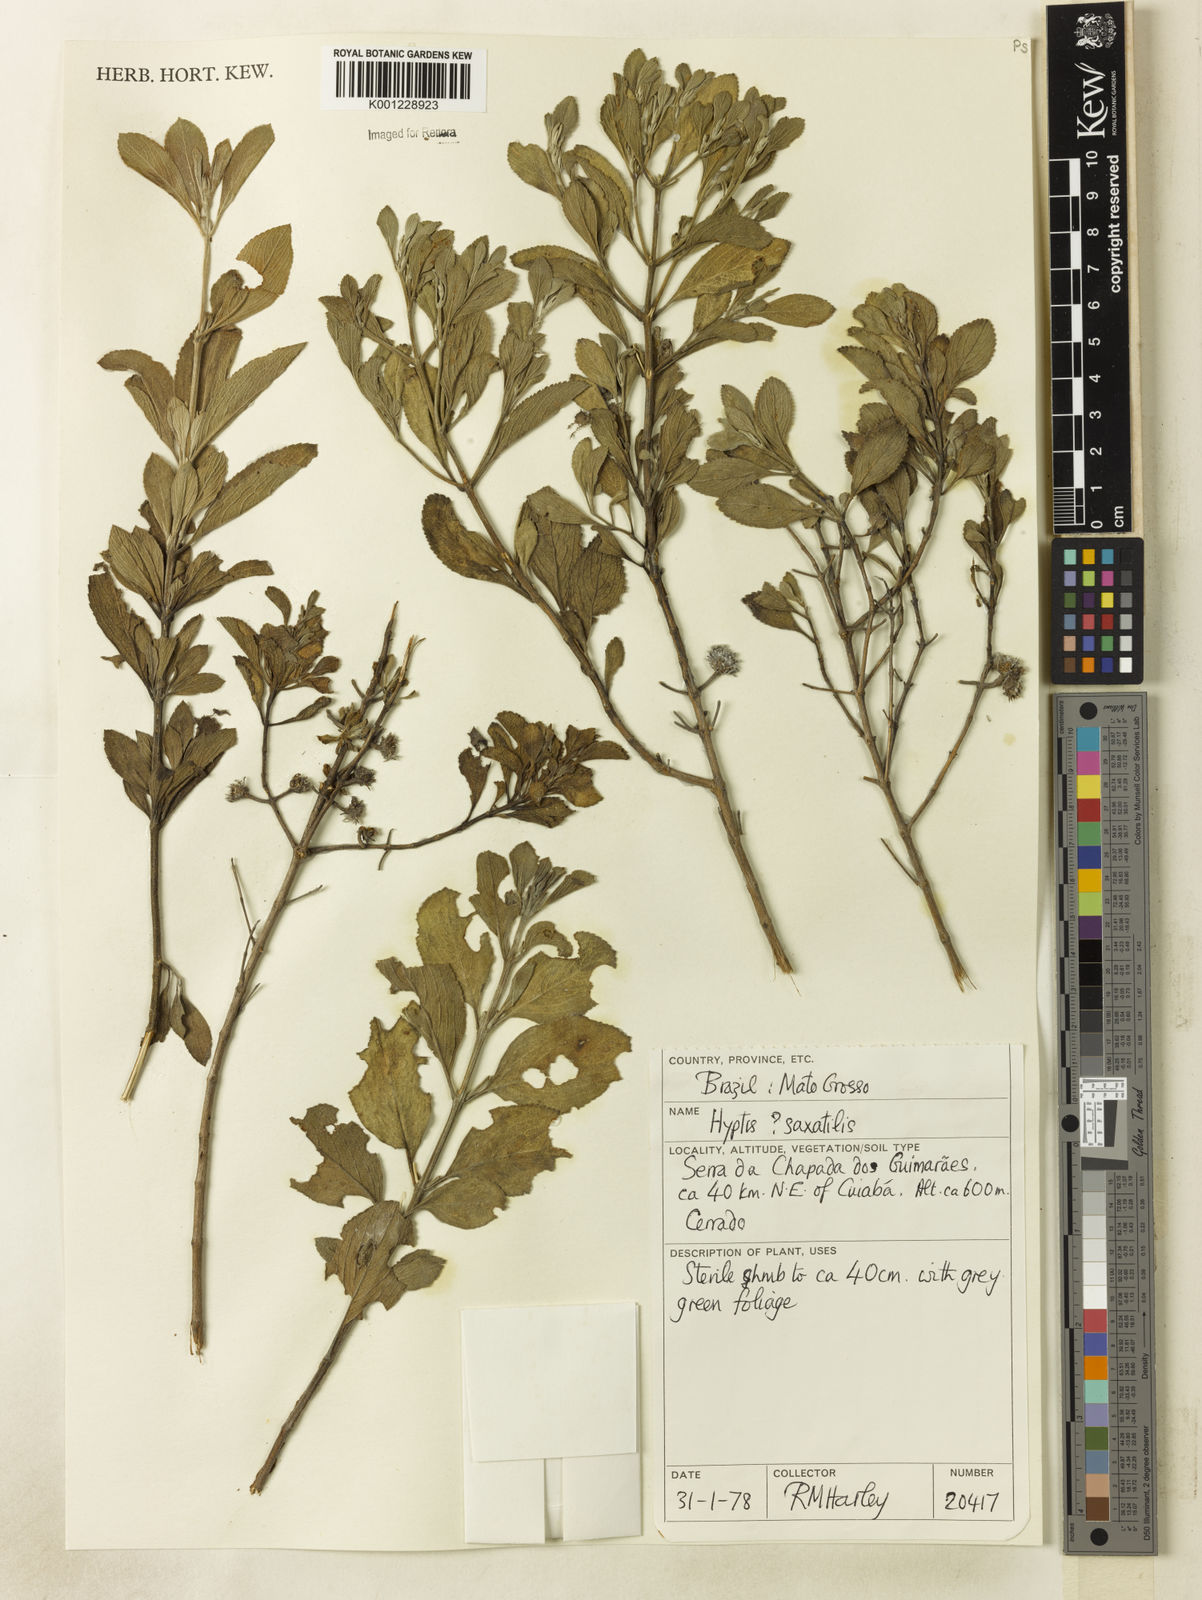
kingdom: Plantae
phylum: Tracheophyta
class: Magnoliopsida
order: Lamiales
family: Lamiaceae
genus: Hyptis
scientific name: Hyptis saxatilis
